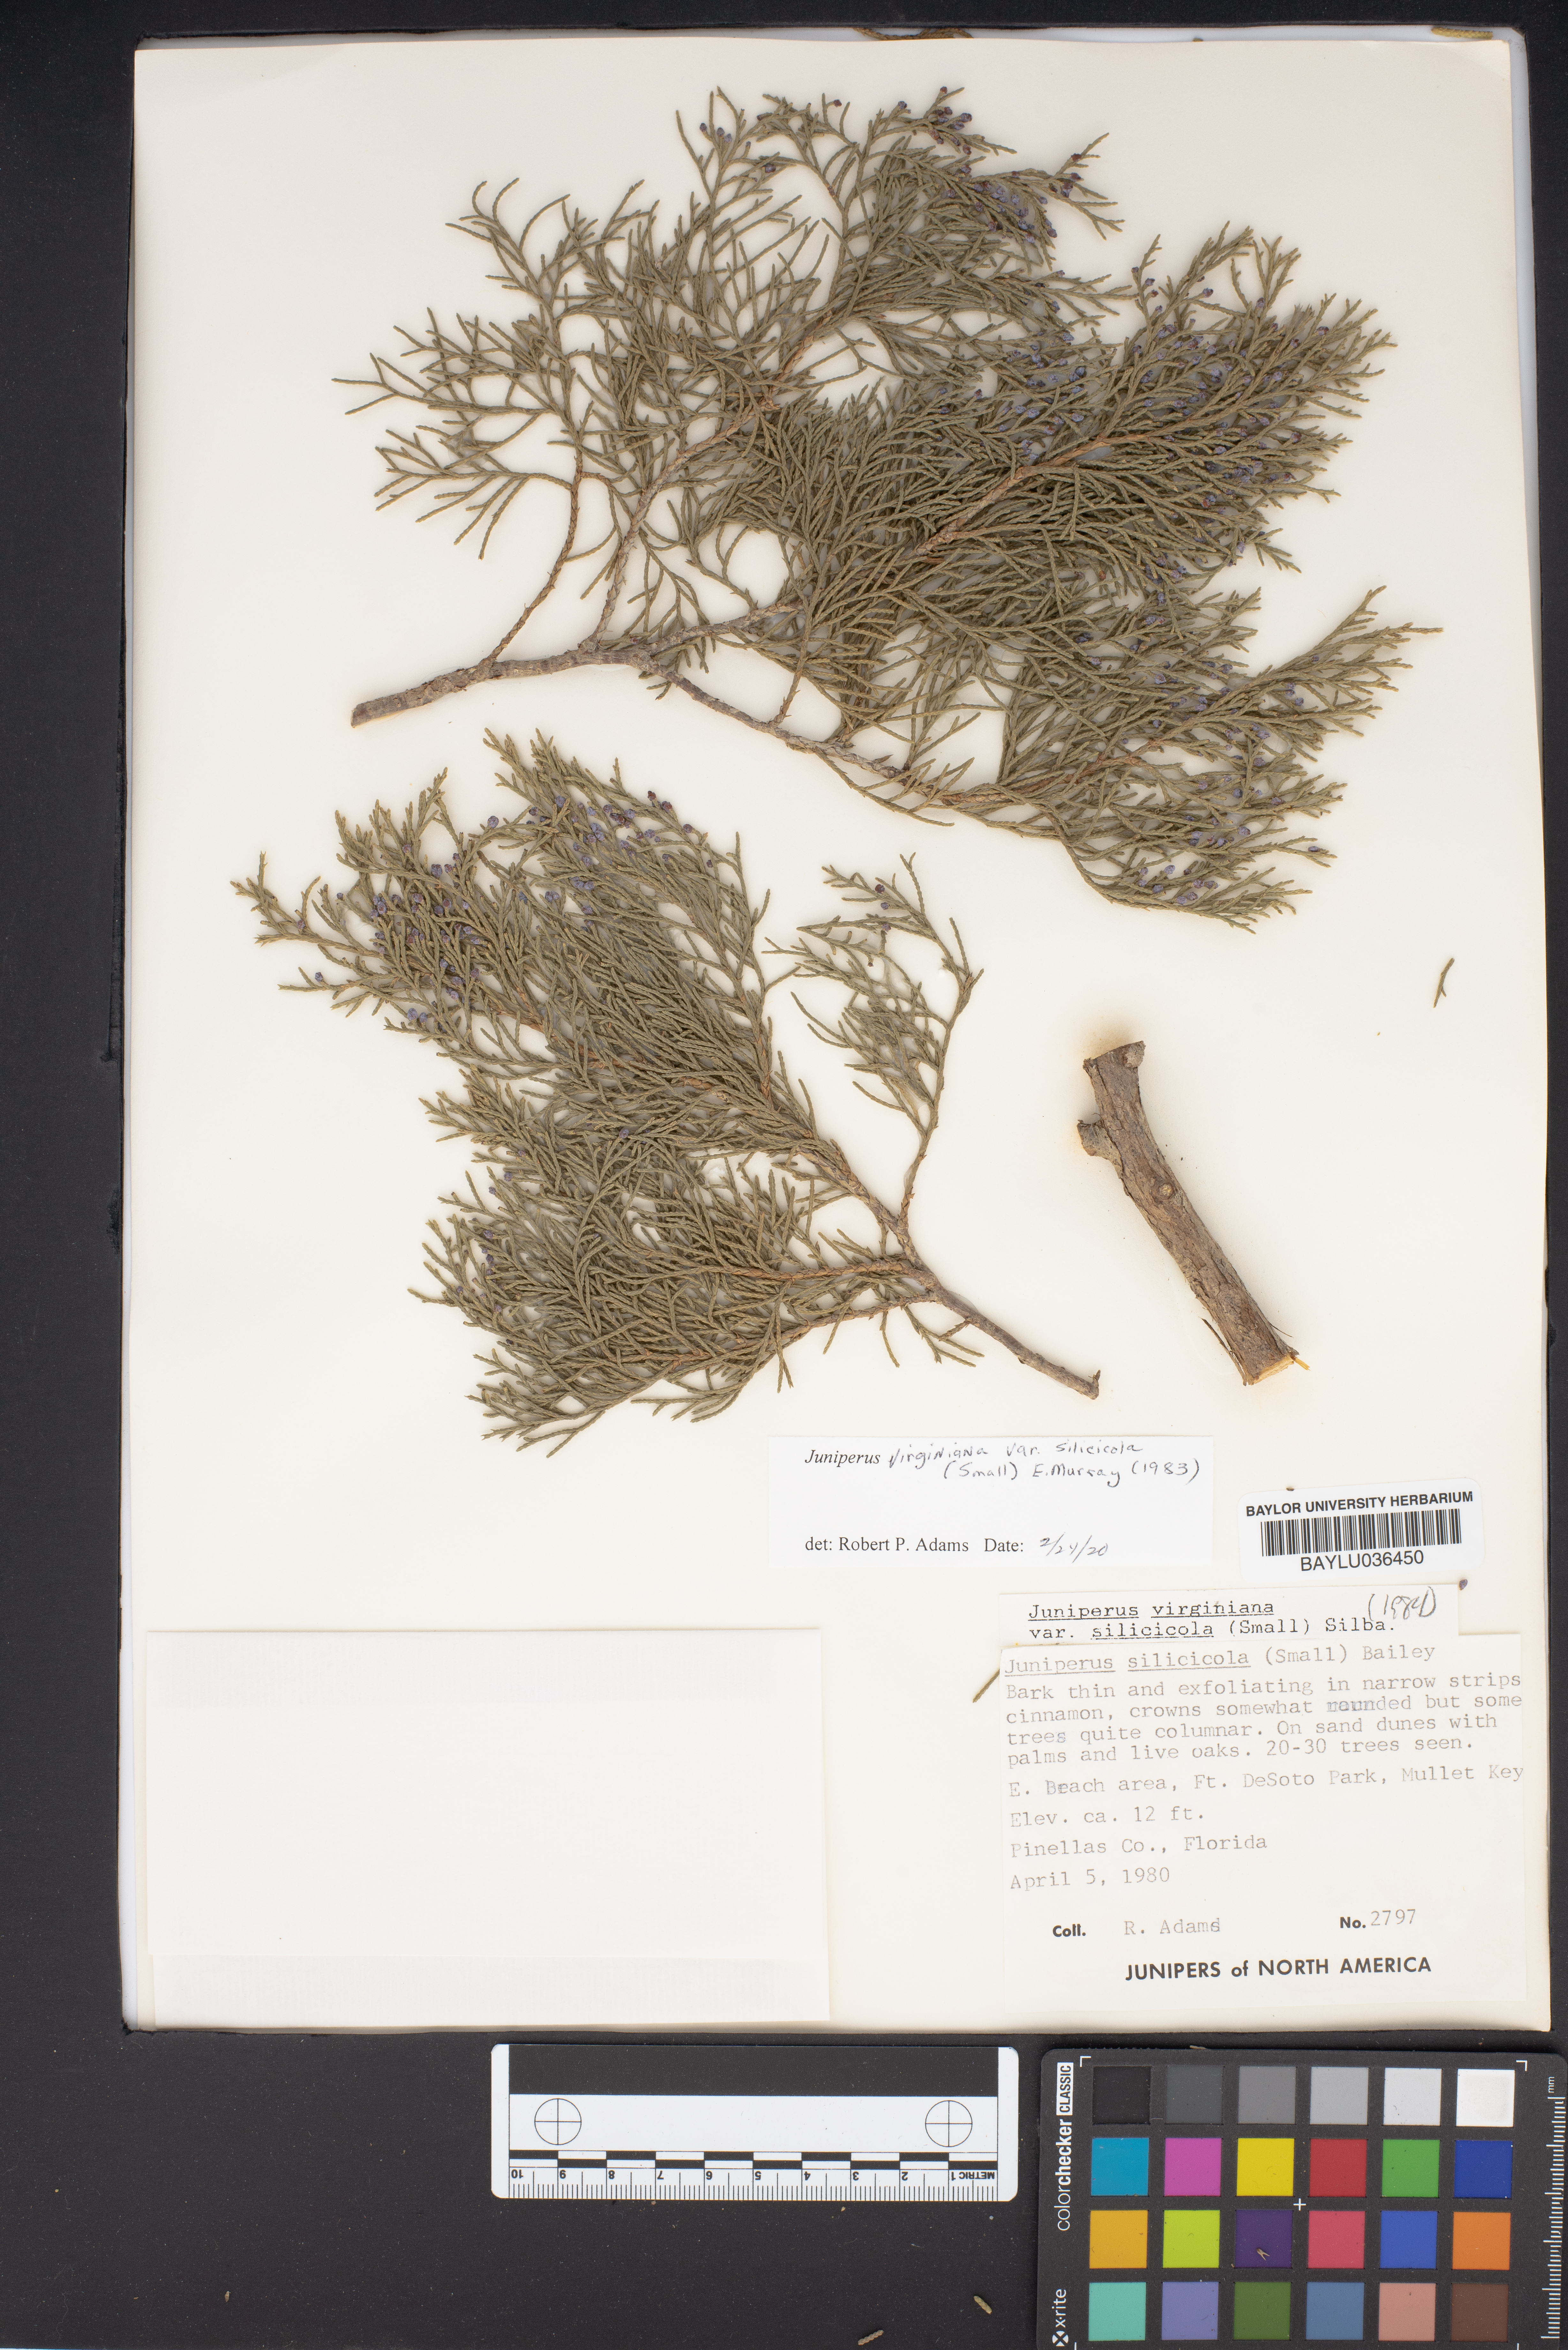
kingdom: Plantae
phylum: Tracheophyta
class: Pinopsida
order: Pinales
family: Cupressaceae
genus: Juniperus
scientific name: Juniperus virginiana
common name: Red juniper
